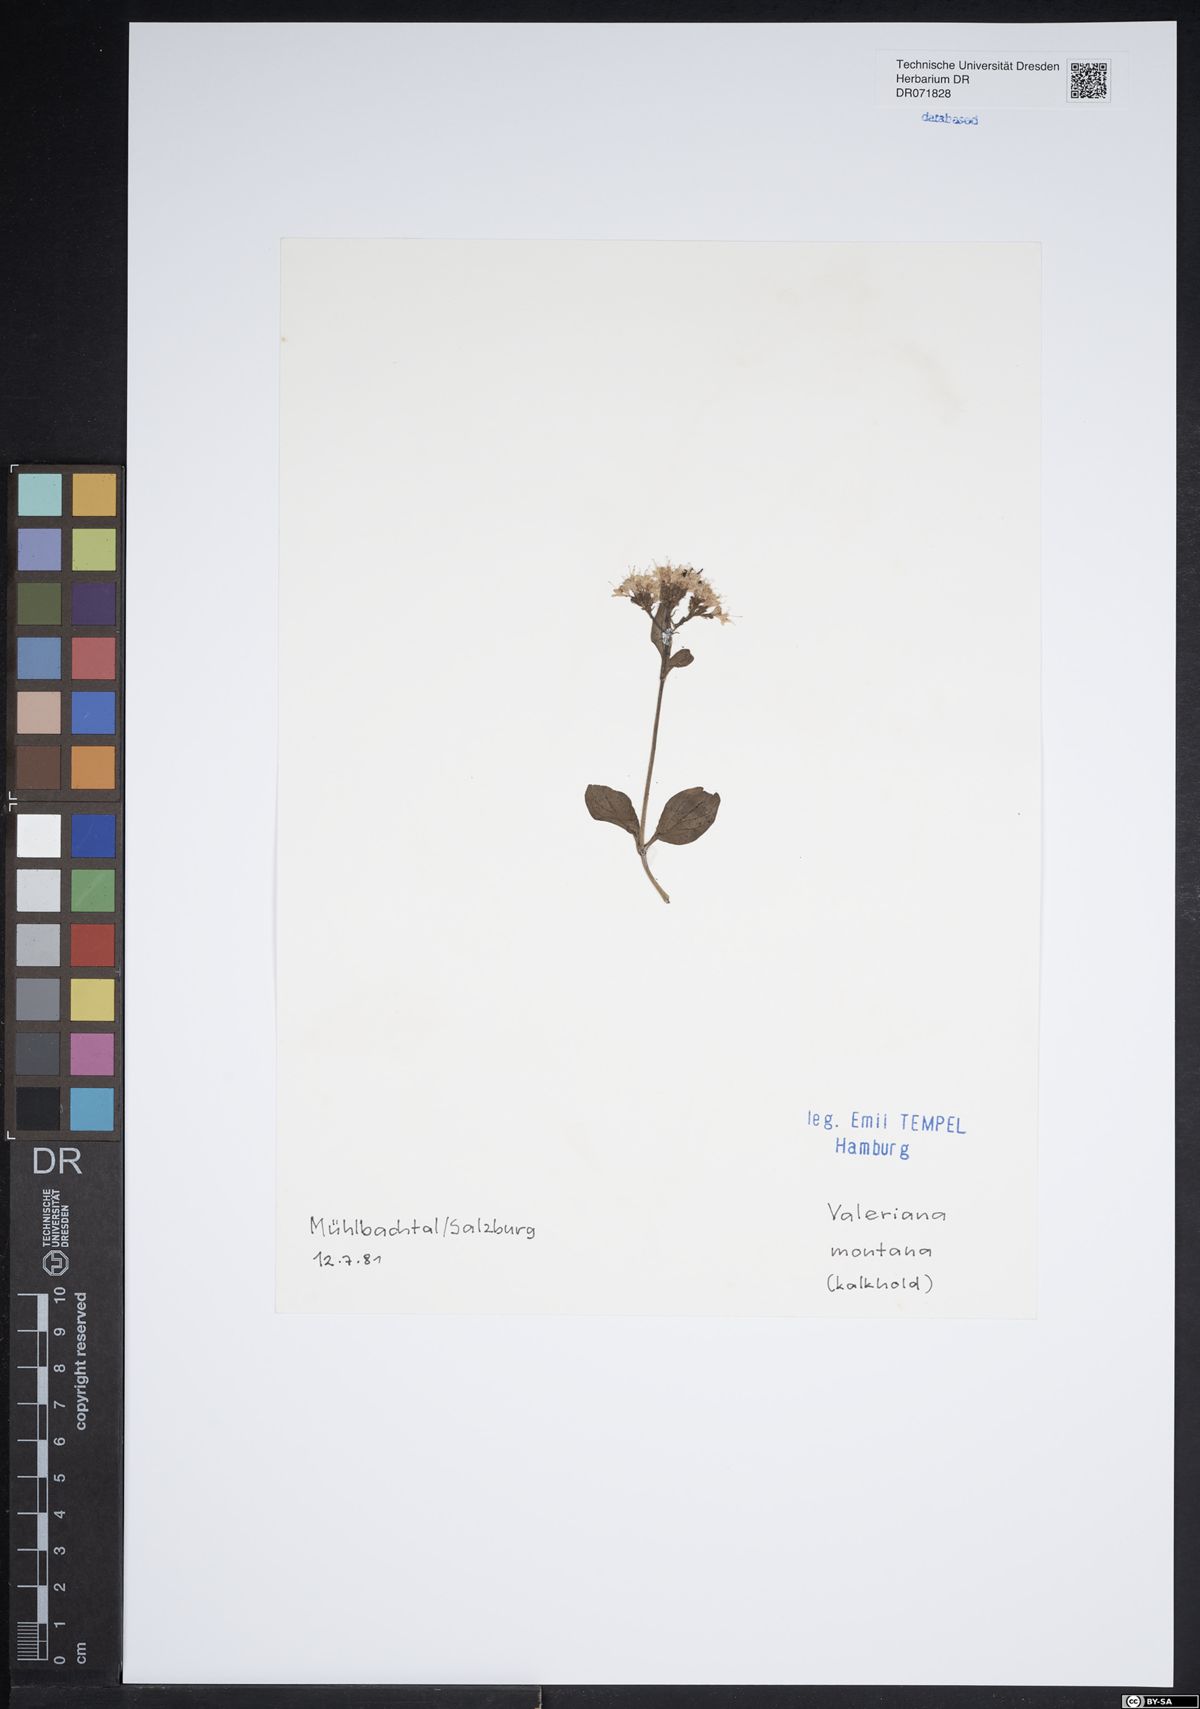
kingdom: Plantae
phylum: Tracheophyta
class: Magnoliopsida
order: Dipsacales
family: Caprifoliaceae
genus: Valeriana
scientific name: Valeriana montana
